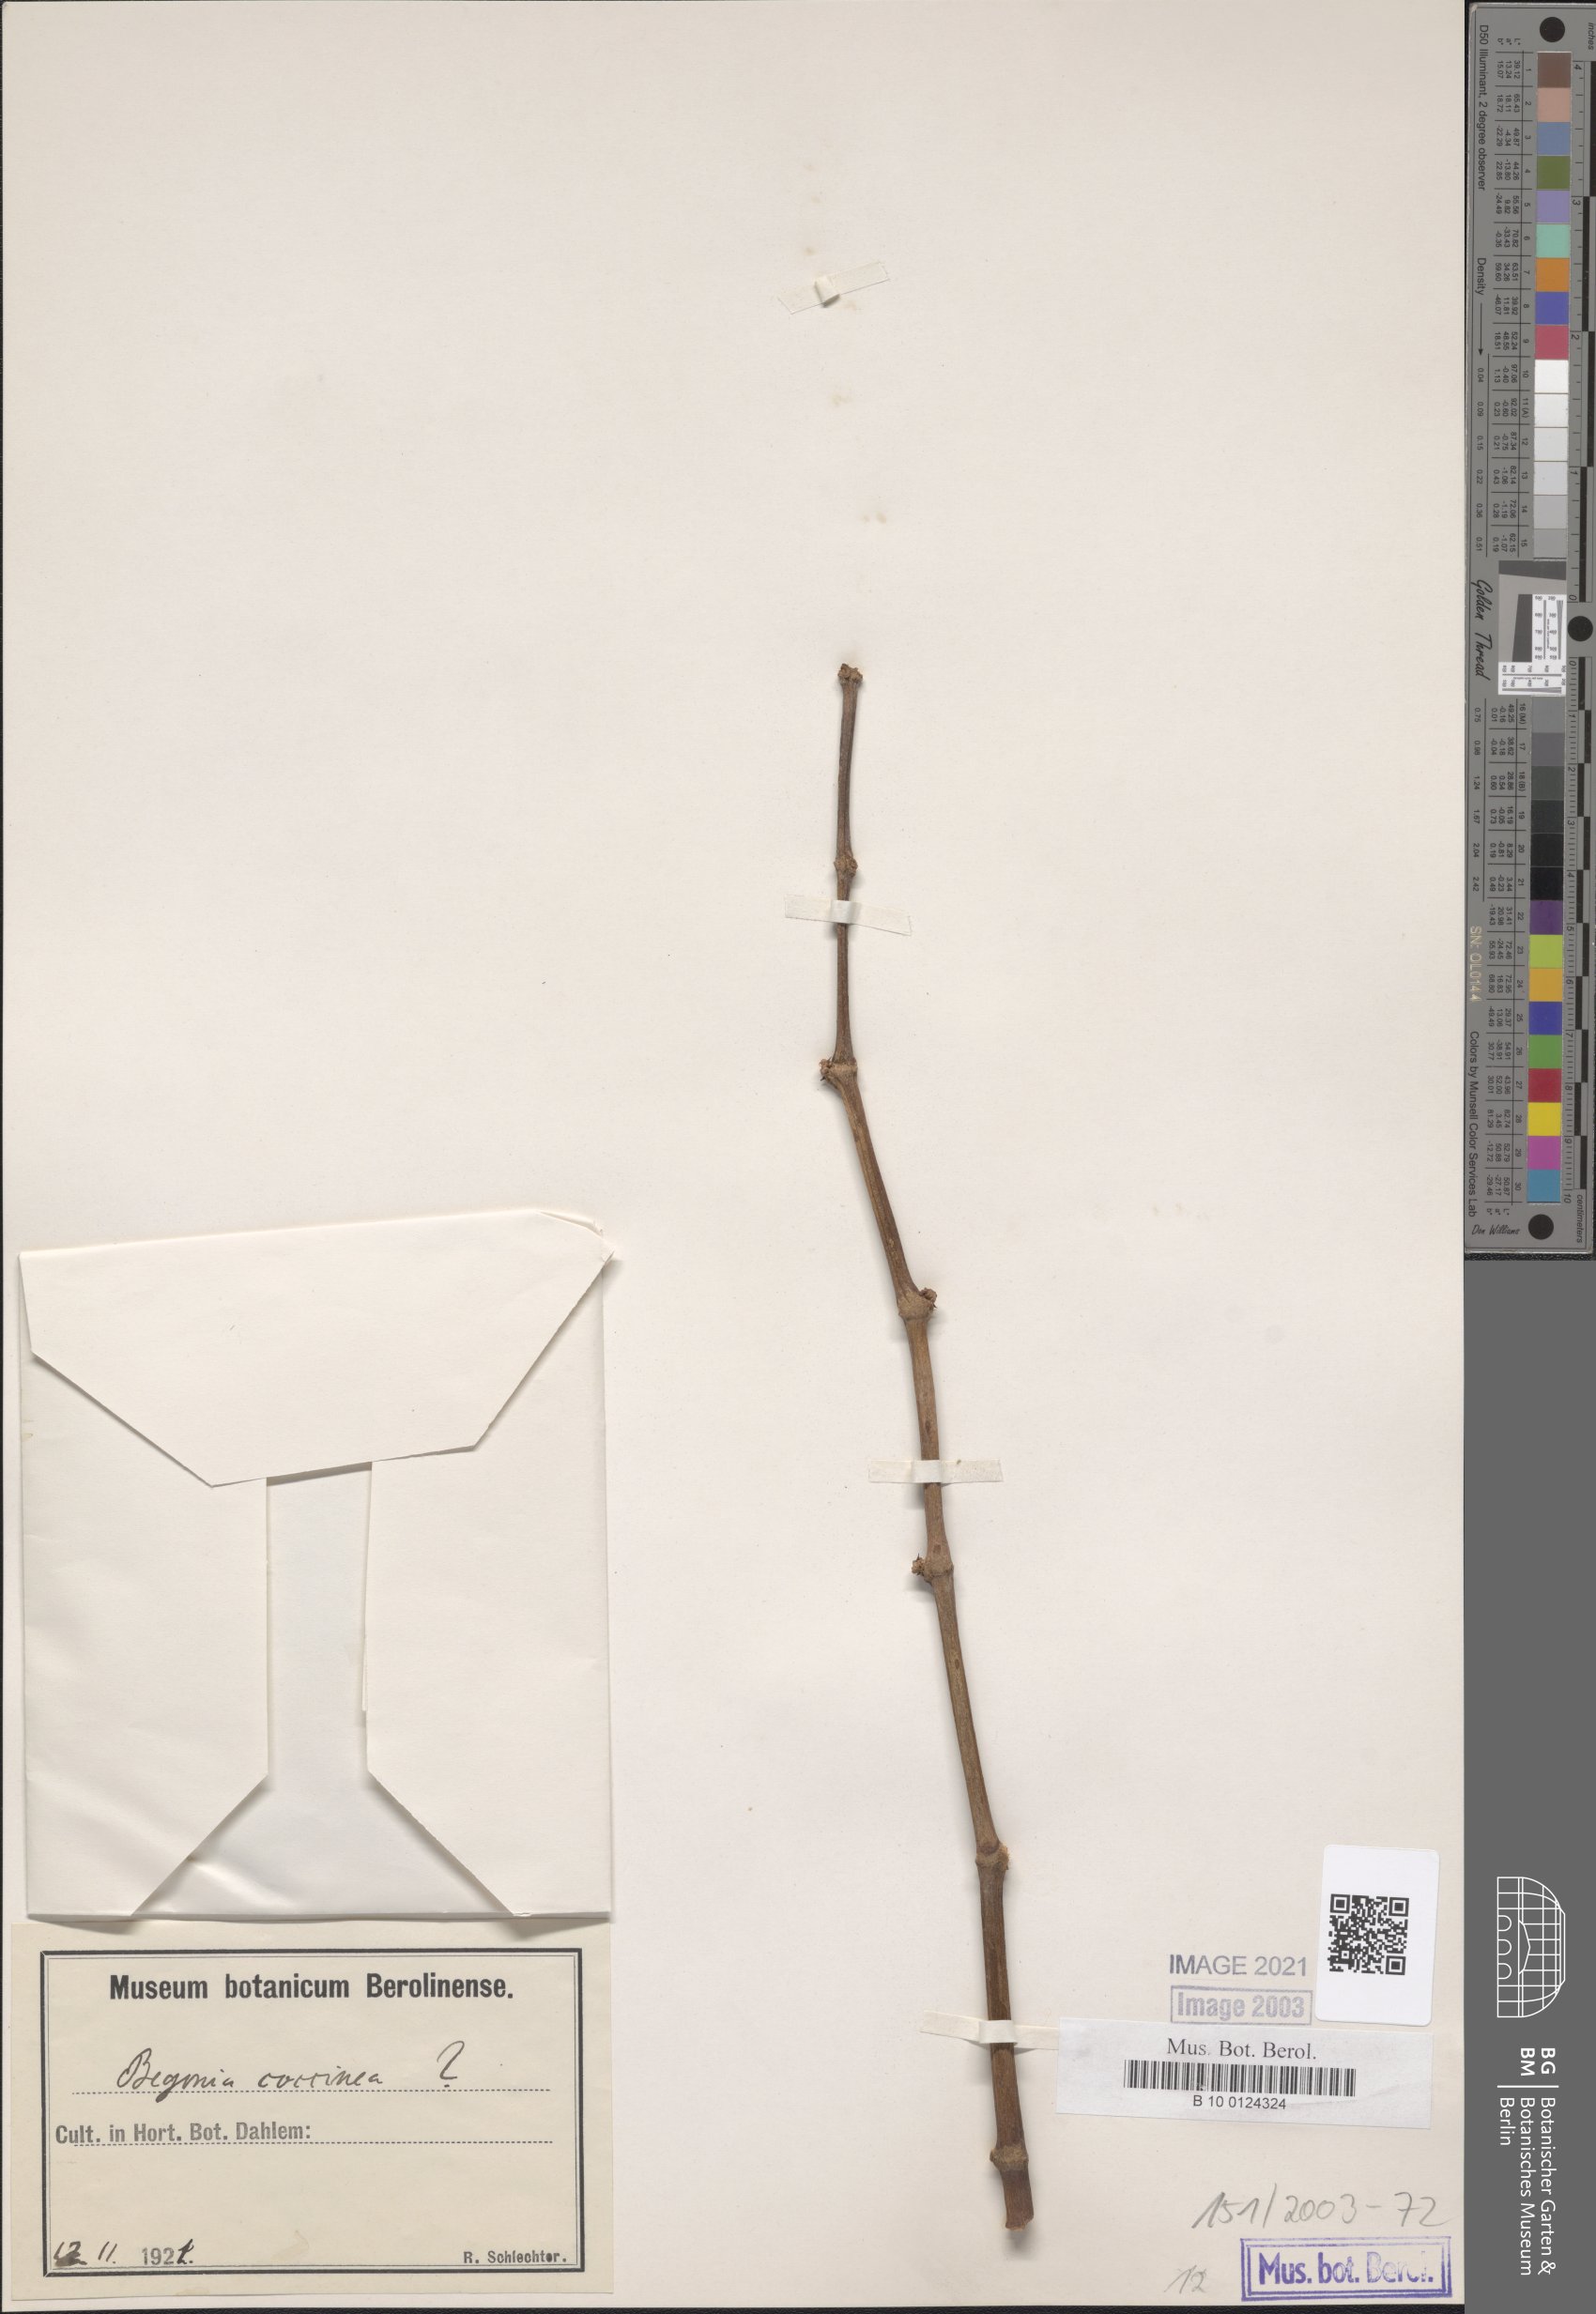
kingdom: Plantae
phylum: Tracheophyta
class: Magnoliopsida
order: Cucurbitales
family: Begoniaceae
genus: Begonia
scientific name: Begonia coccinea
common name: Angel-wing begonia
